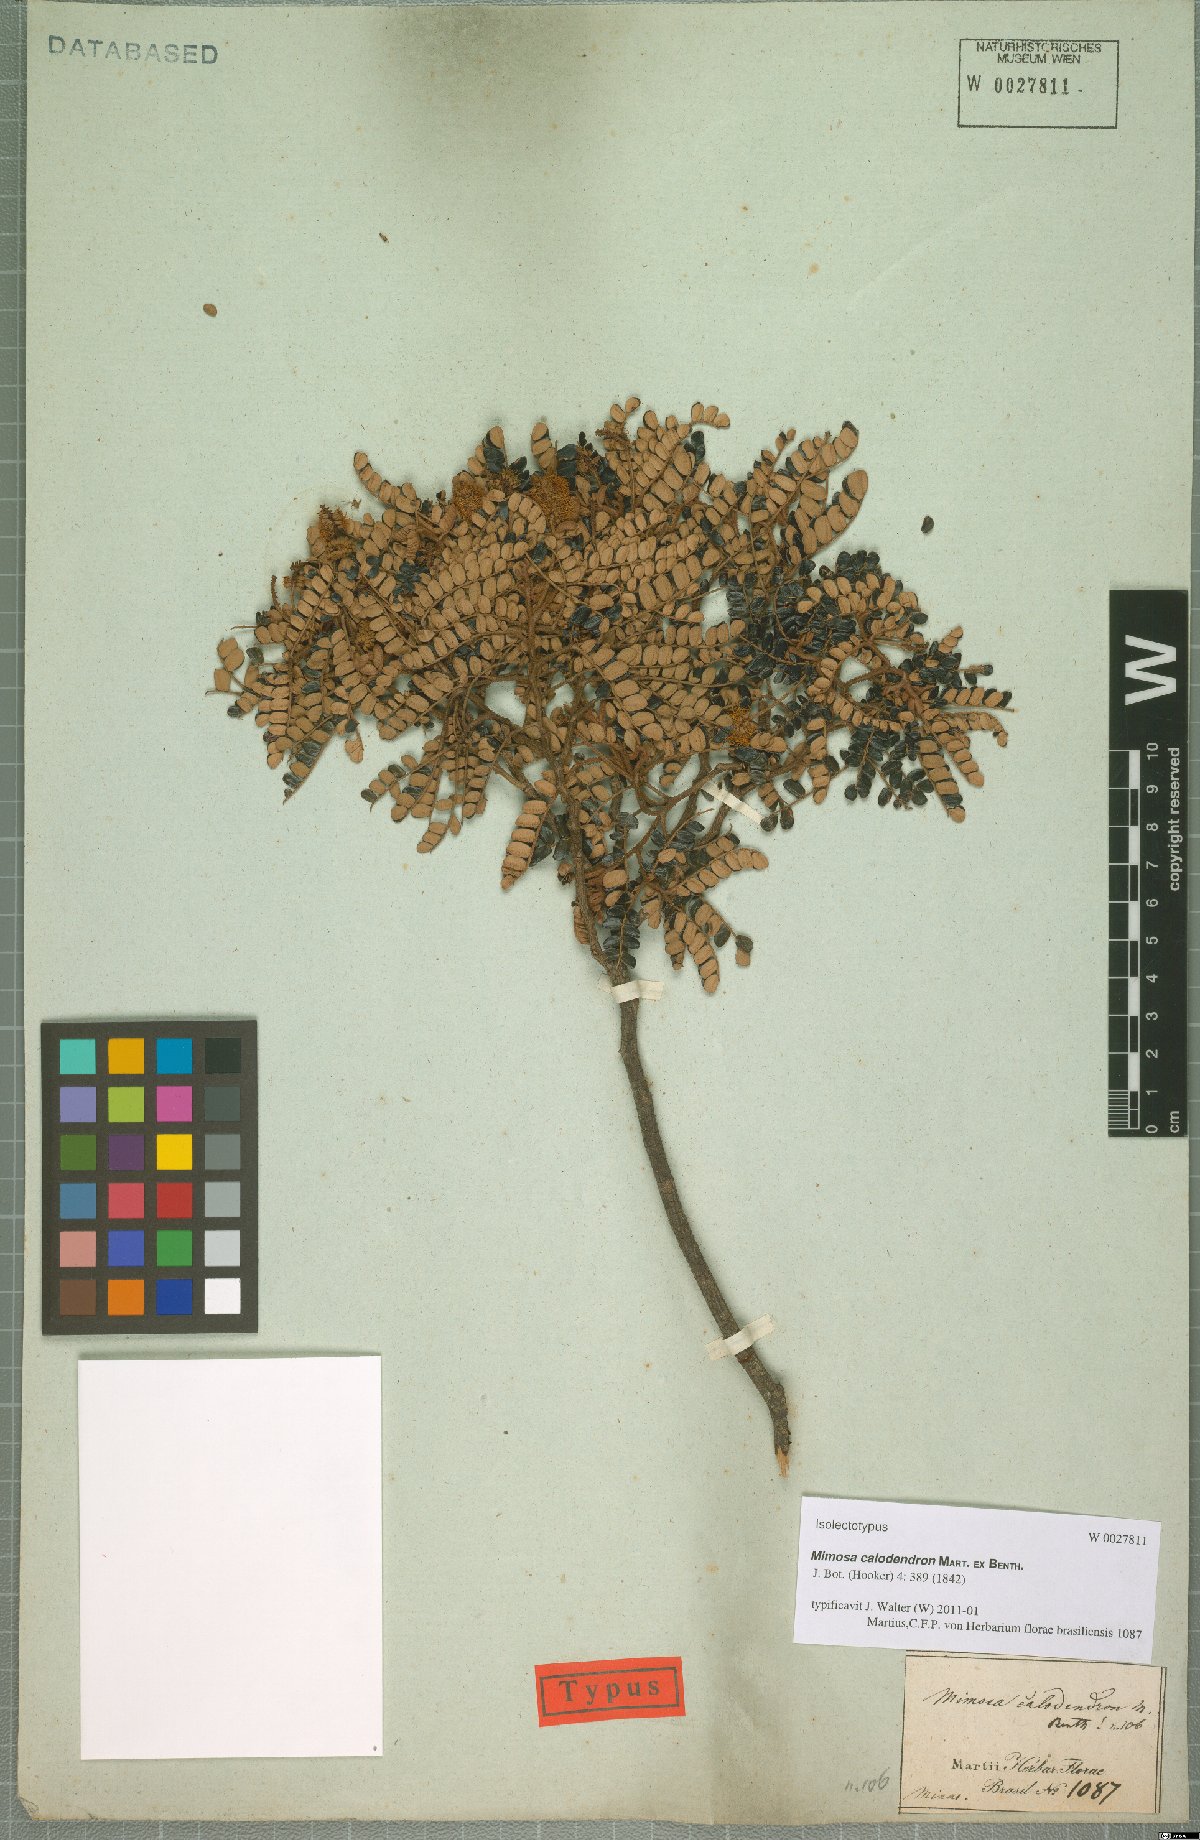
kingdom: Plantae
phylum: Tracheophyta
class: Magnoliopsida
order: Fabales
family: Fabaceae
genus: Mimosa
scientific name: Mimosa calodendron
